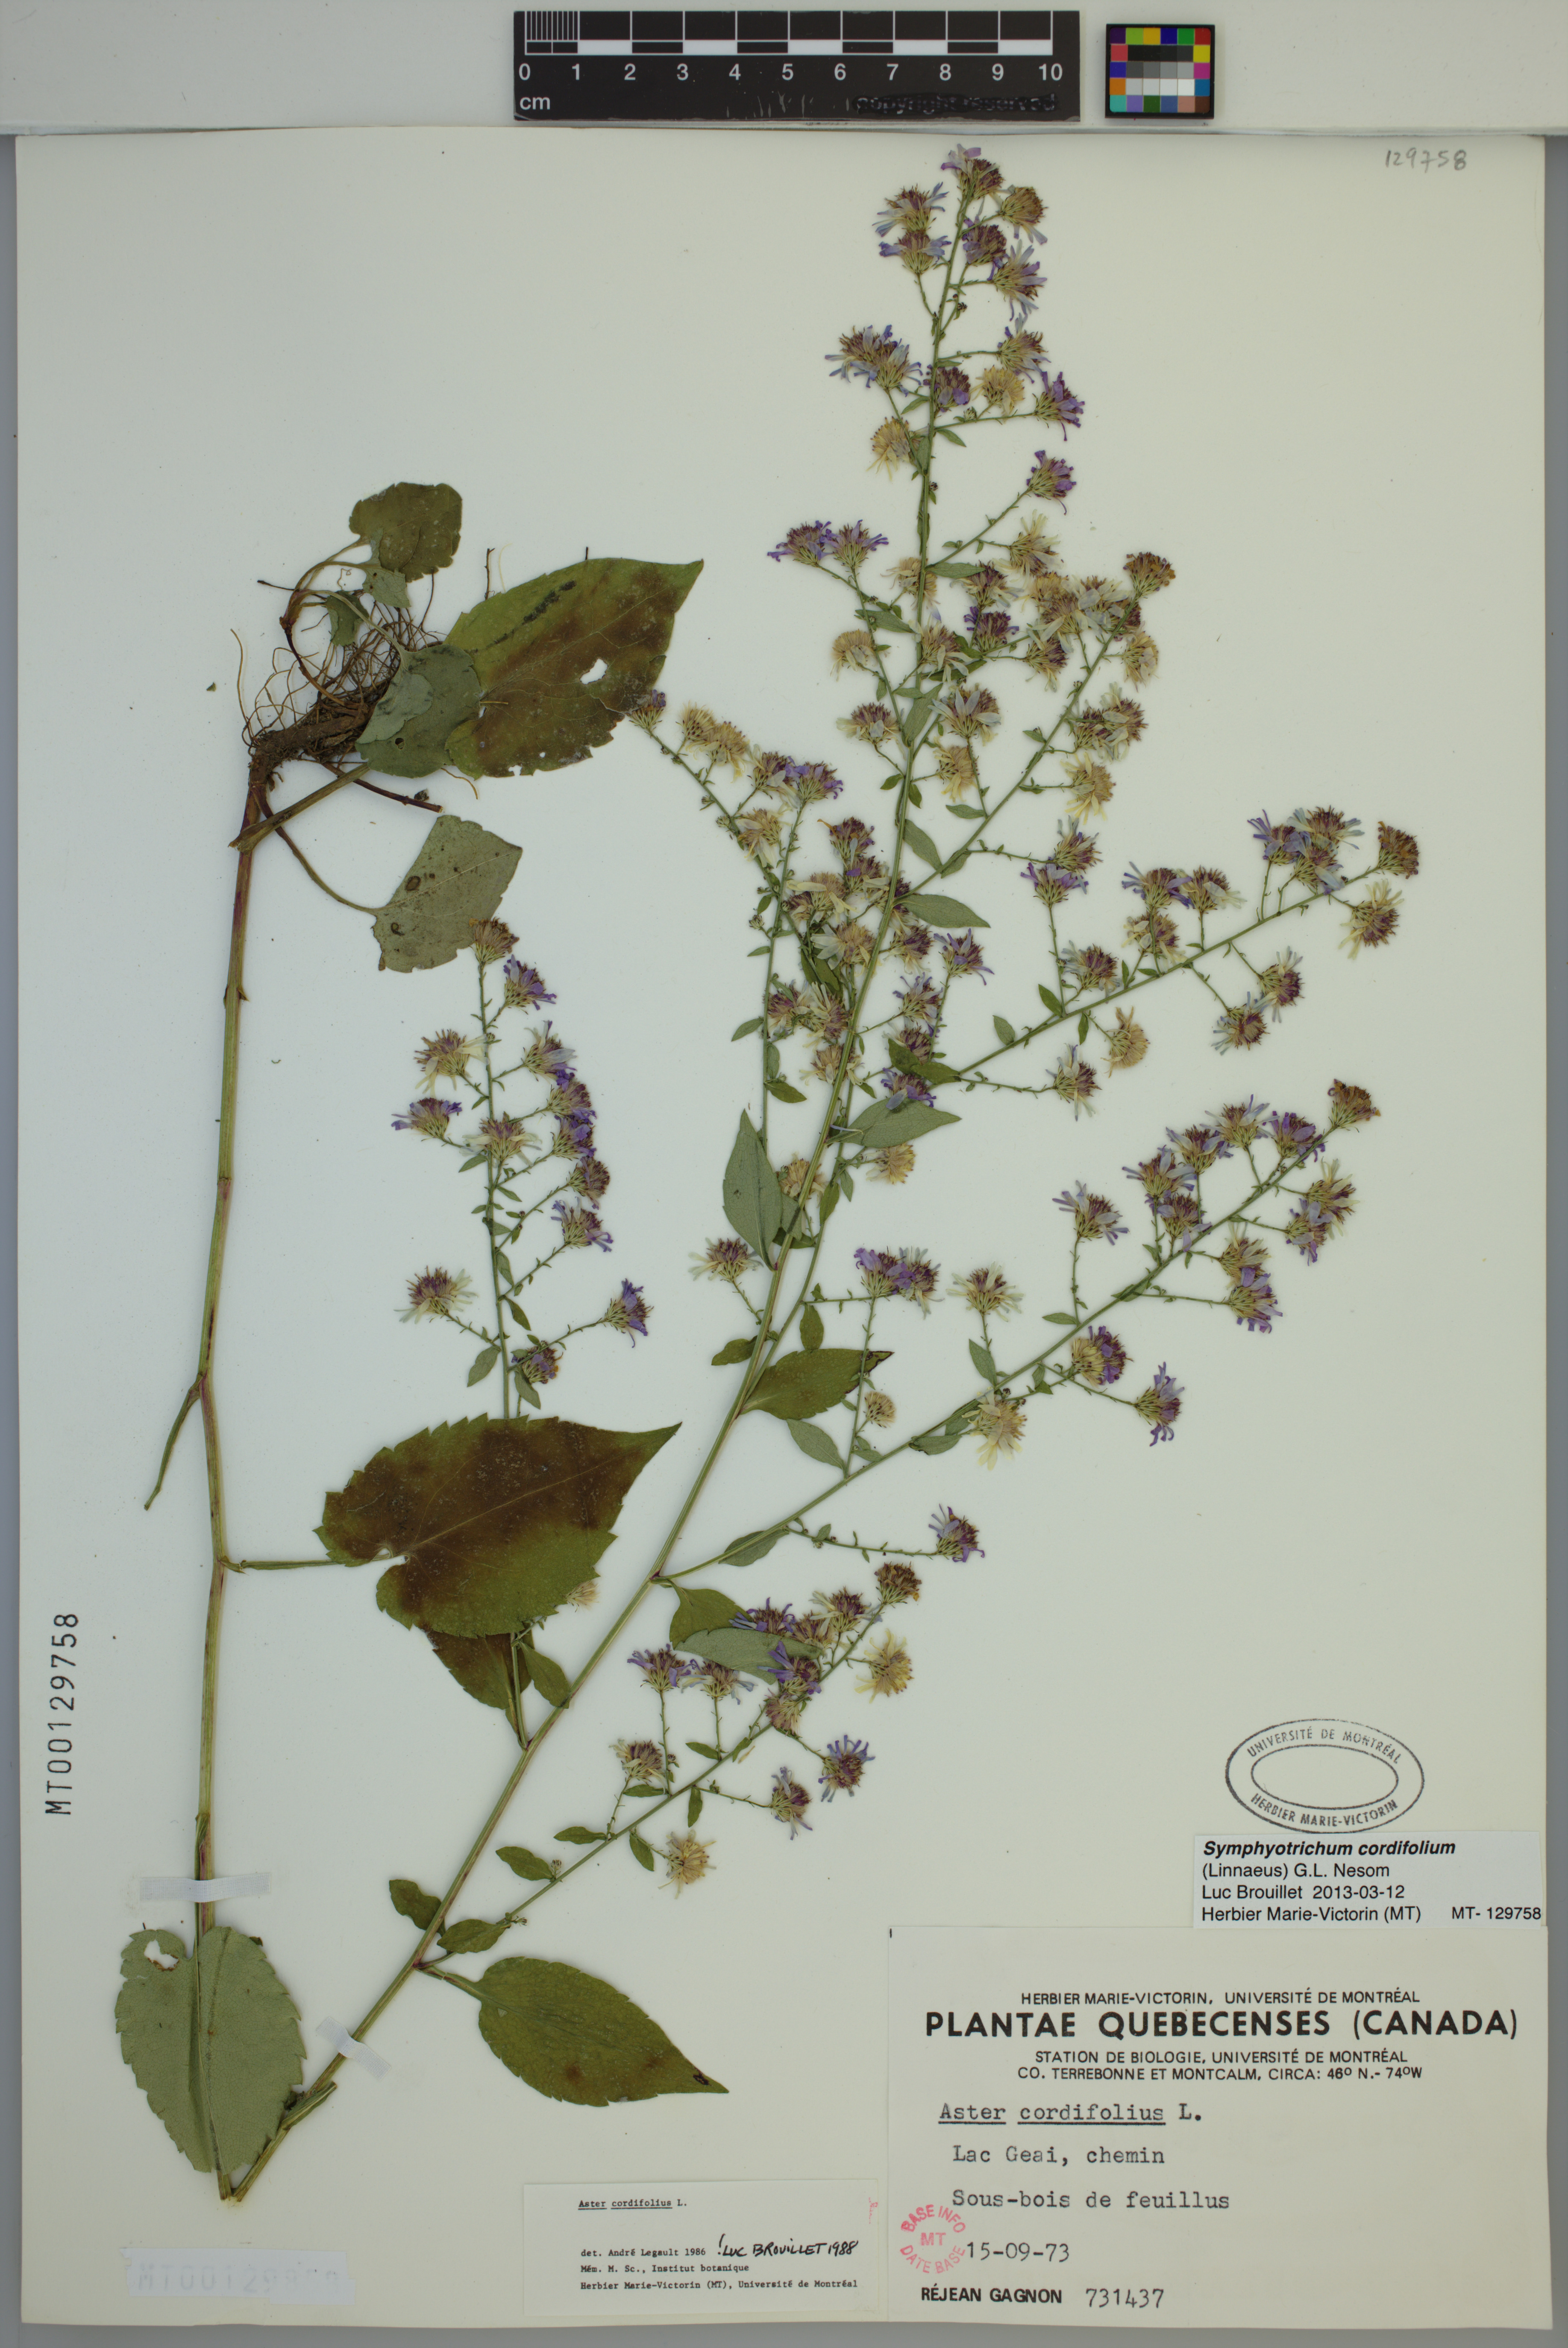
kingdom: Plantae
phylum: Tracheophyta
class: Magnoliopsida
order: Asterales
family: Asteraceae
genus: Symphyotrichum
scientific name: Symphyotrichum cordifolium
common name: Beeweed
